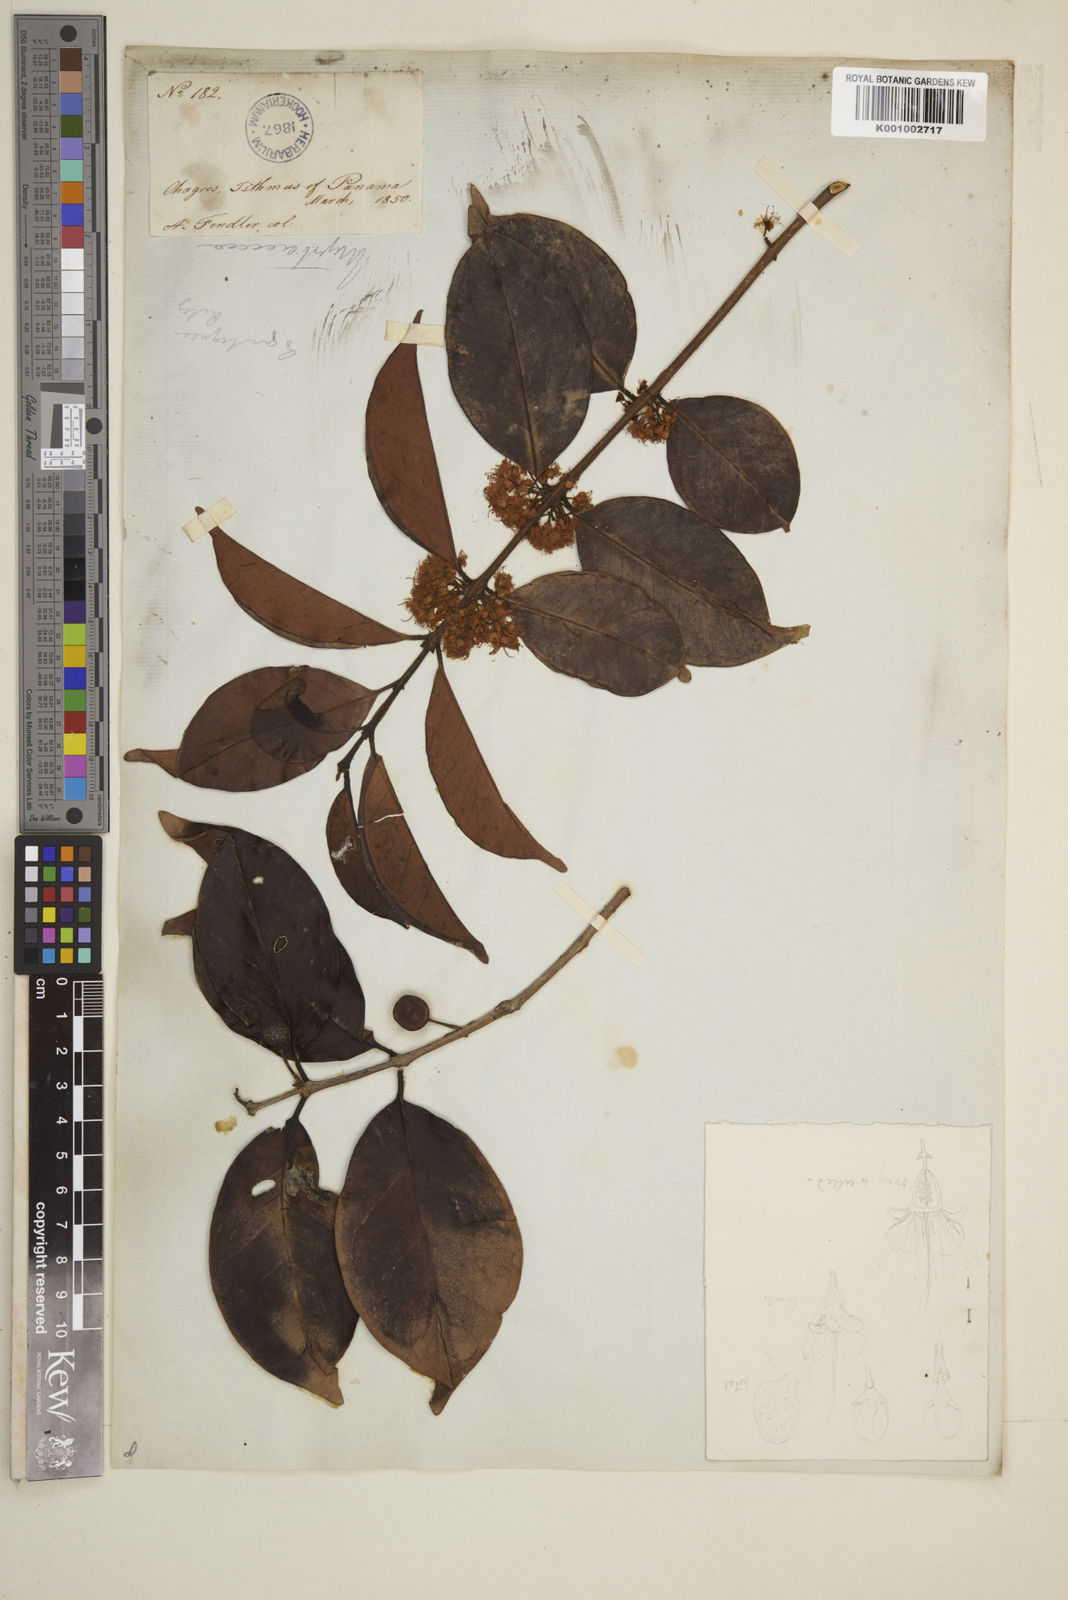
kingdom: Plantae
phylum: Tracheophyta
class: Magnoliopsida
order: Myrtales
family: Myrtaceae
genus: Eugenia
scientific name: Eugenia acapulcensis
